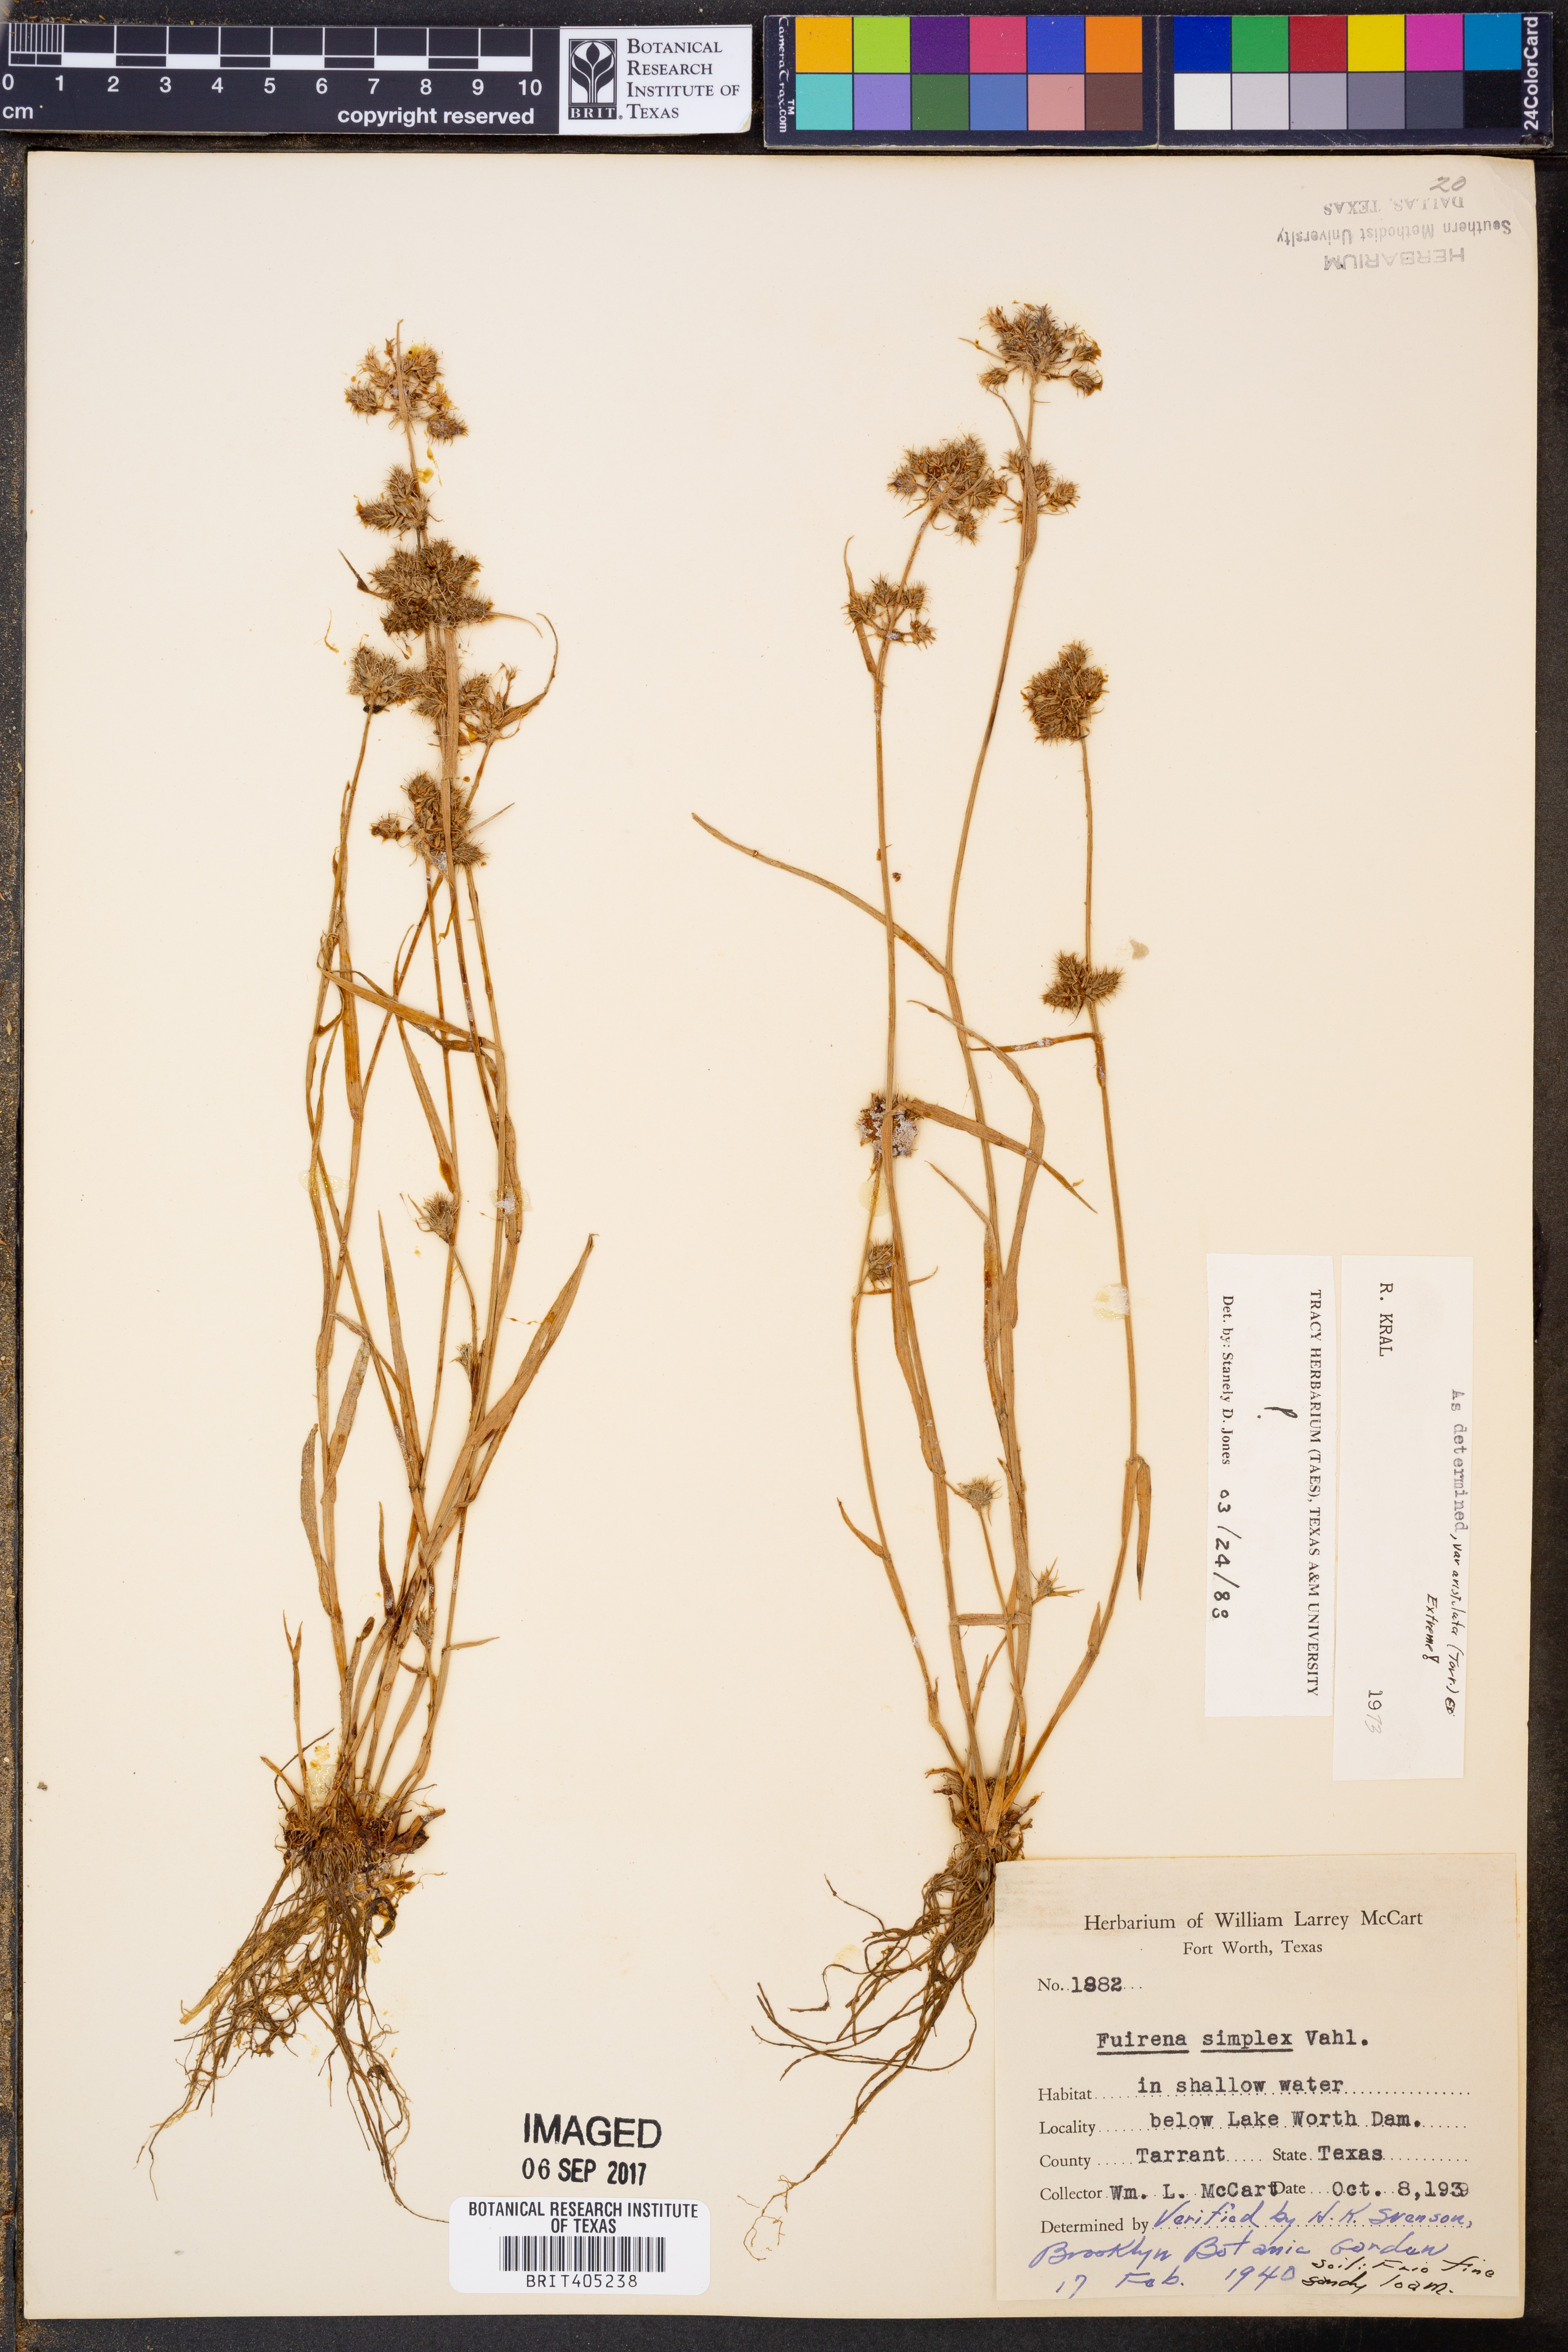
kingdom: Plantae
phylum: Tracheophyta
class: Liliopsida
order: Poales
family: Cyperaceae
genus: Fuirena
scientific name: Fuirena simplex
